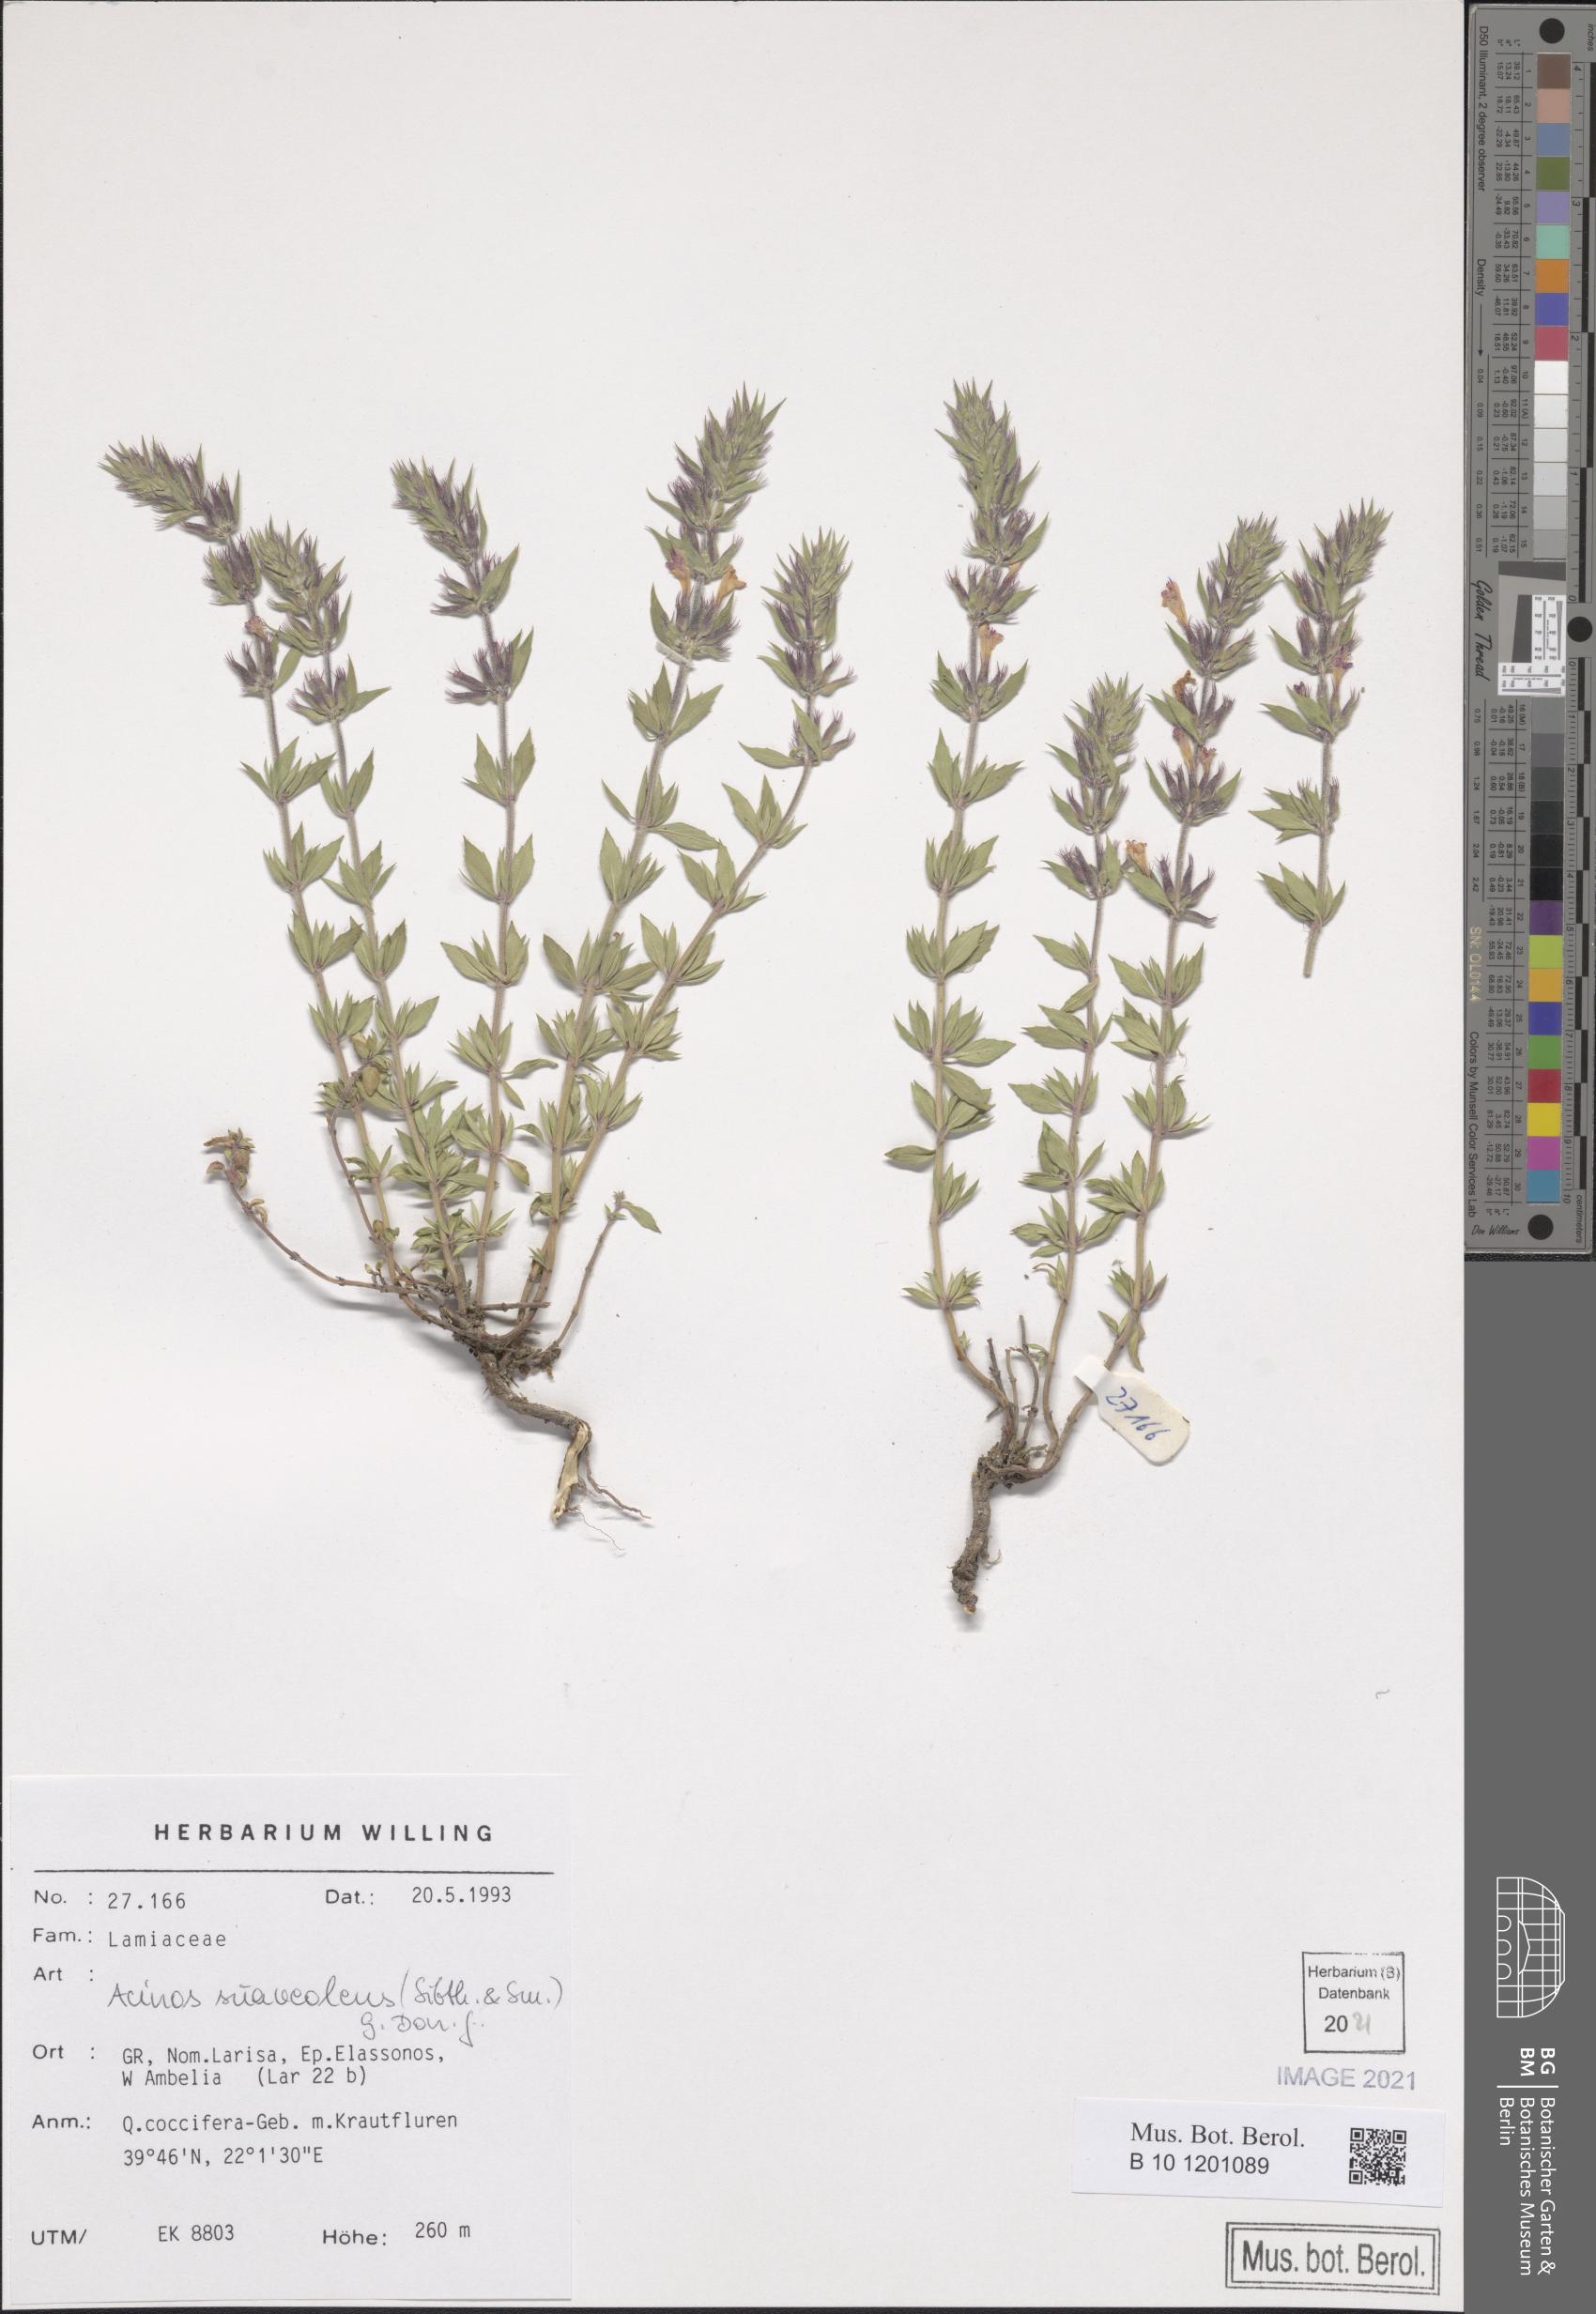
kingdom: Plantae
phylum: Tracheophyta
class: Magnoliopsida
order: Lamiales
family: Lamiaceae
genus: Clinopodium
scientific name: Clinopodium suaveolens
